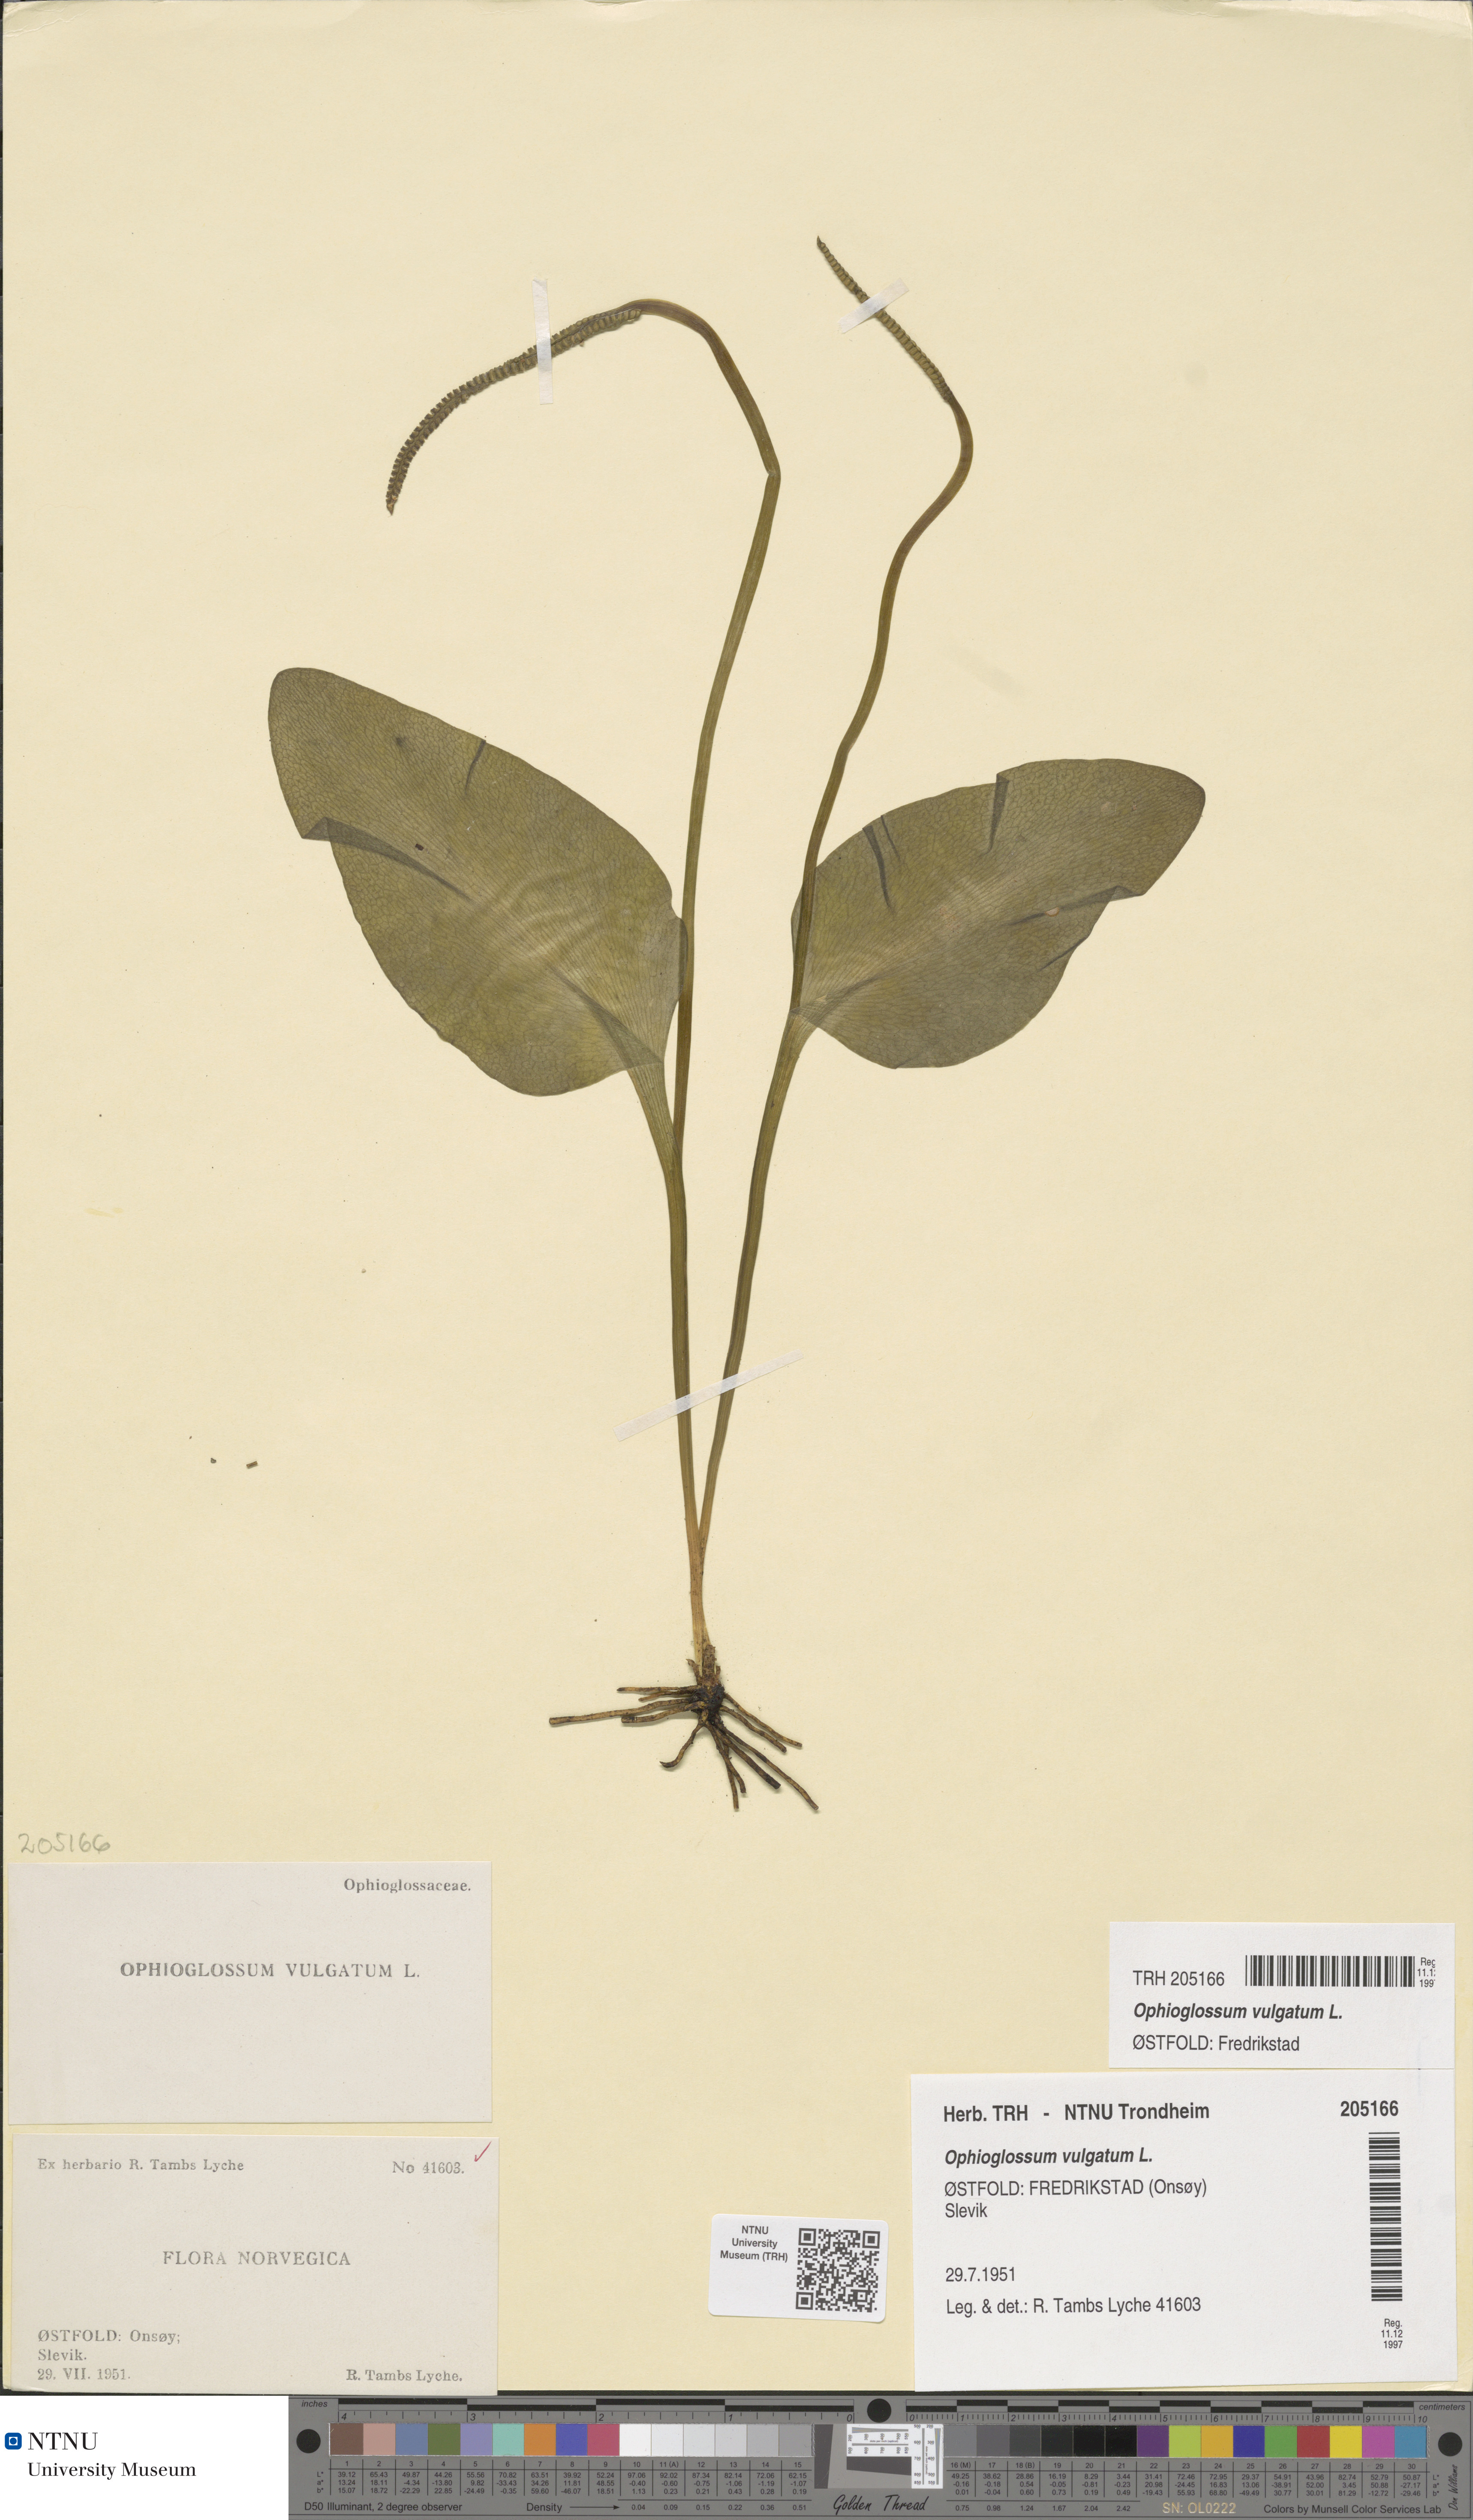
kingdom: Plantae
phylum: Tracheophyta
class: Polypodiopsida
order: Ophioglossales
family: Ophioglossaceae
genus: Ophioglossum
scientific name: Ophioglossum vulgatum
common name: Adder's-tongue
